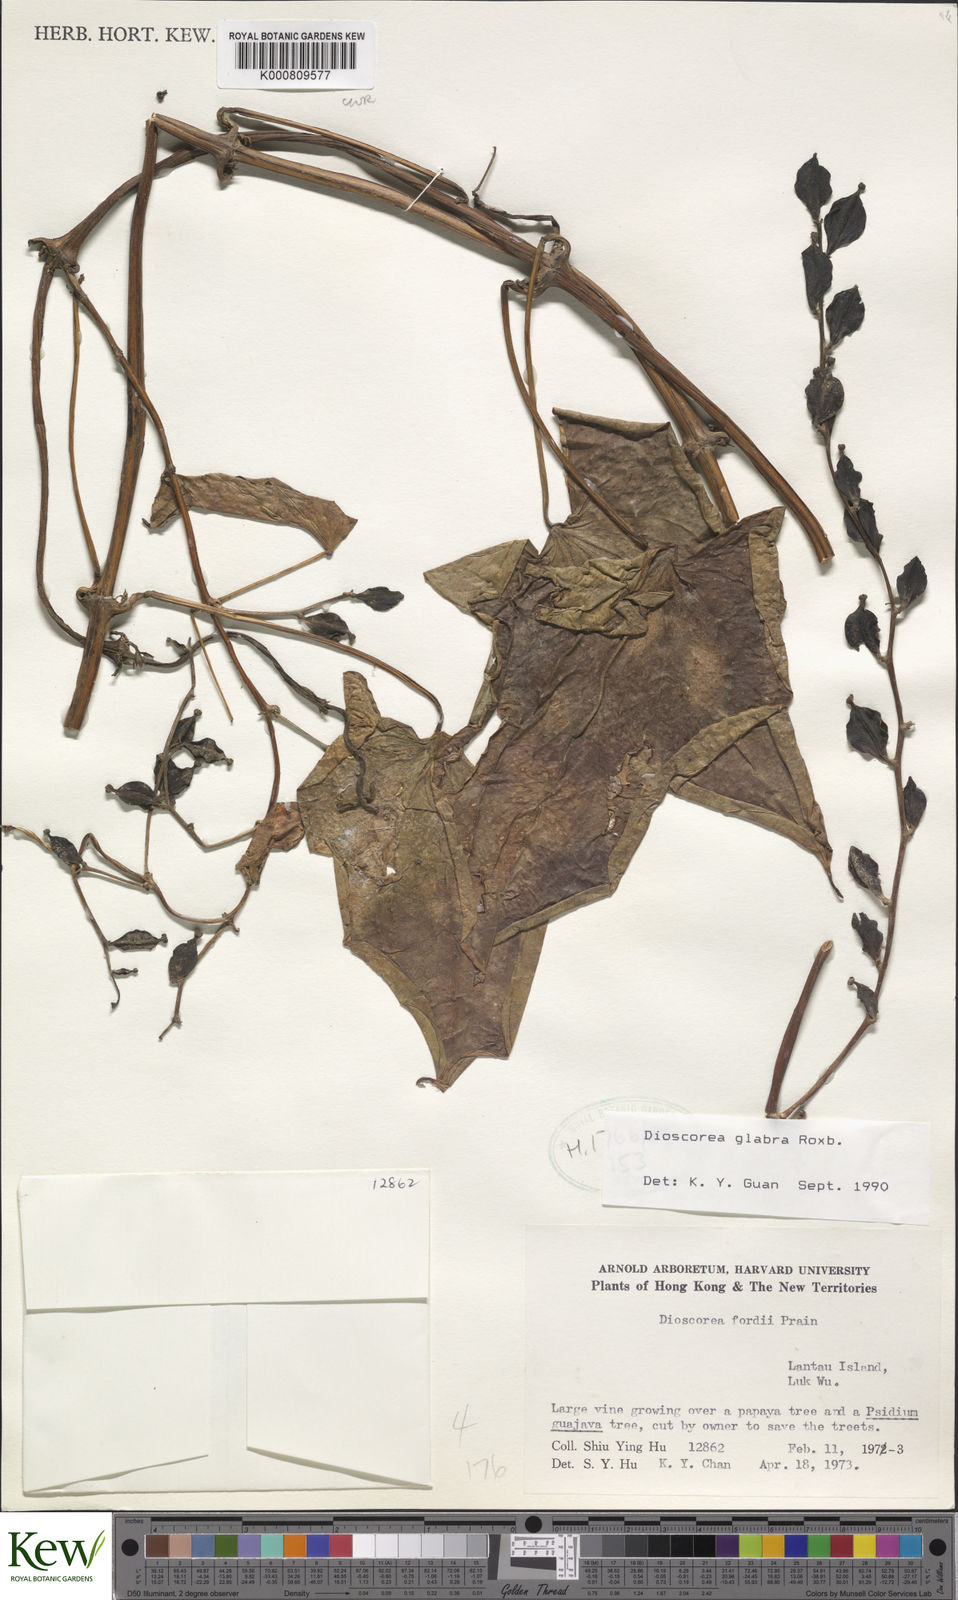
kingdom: Plantae
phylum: Tracheophyta
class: Liliopsida
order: Dioscoreales
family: Dioscoreaceae
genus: Dioscorea
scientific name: Dioscorea glabra
